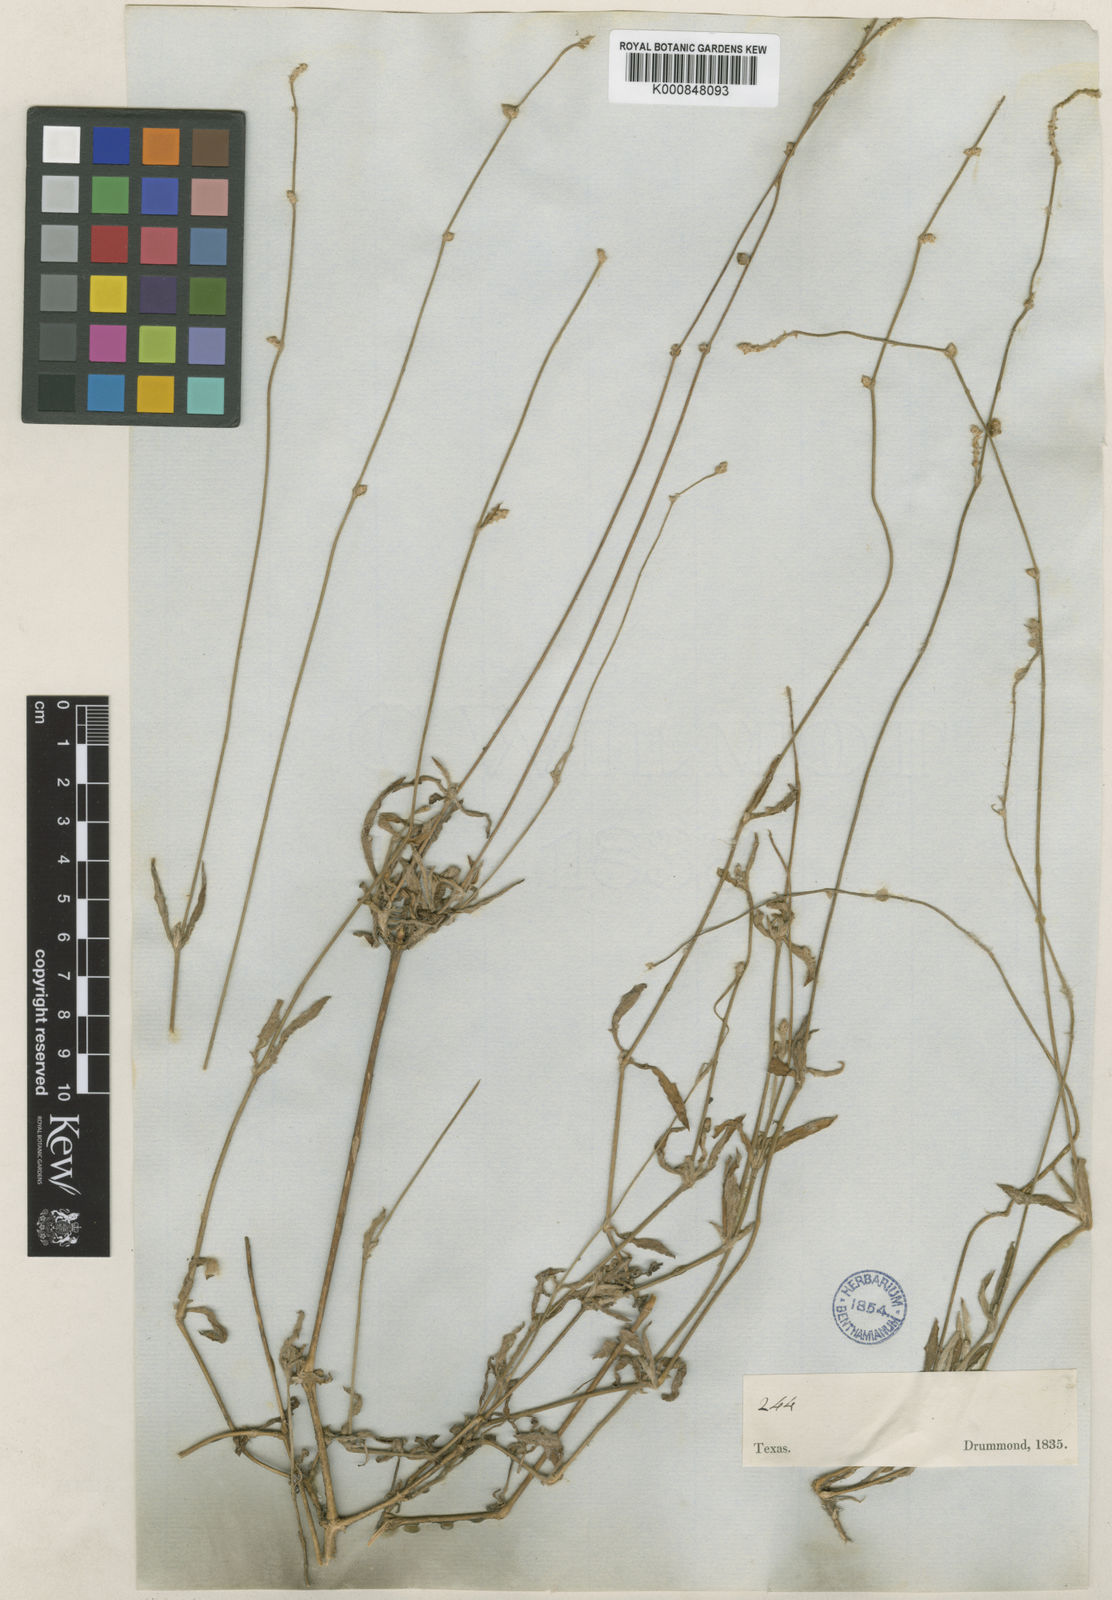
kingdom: Plantae
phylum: Tracheophyta
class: Magnoliopsida
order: Caryophyllales
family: Amaranthaceae
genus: Froelichia
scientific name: Froelichia gracilis
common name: Slender cottonweed
